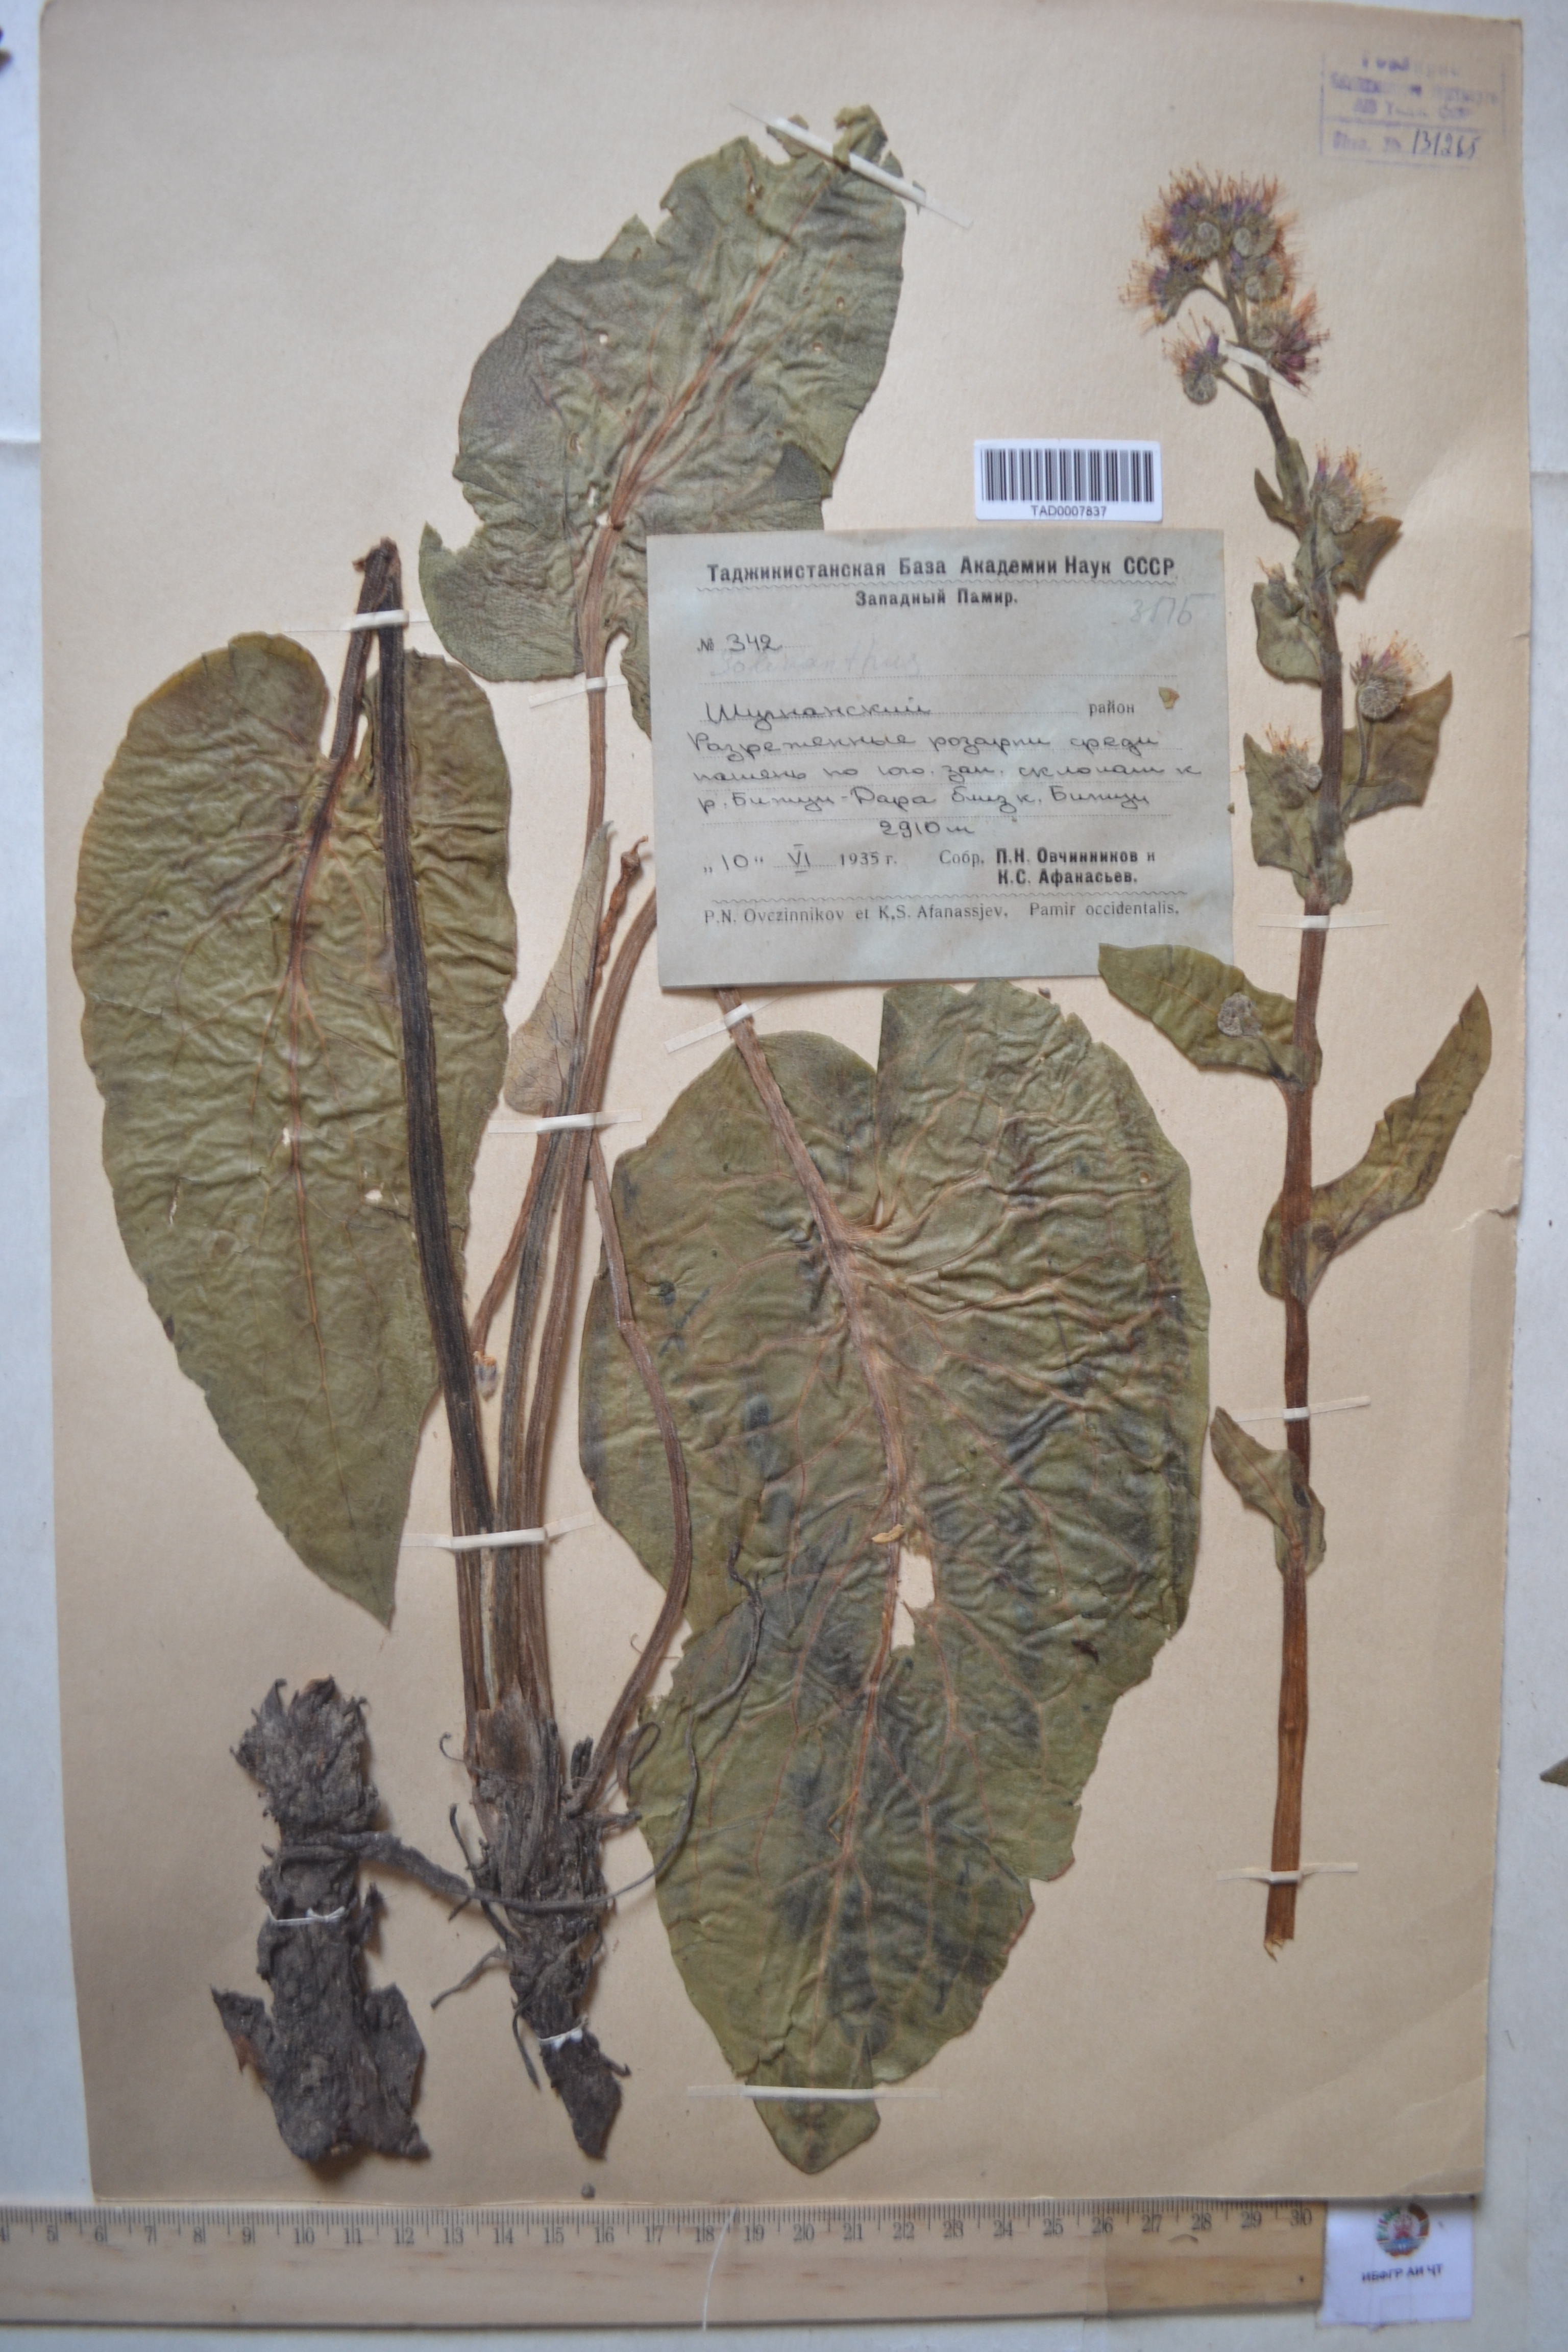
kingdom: Plantae
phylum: Tracheophyta
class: Magnoliopsida
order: Boraginales
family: Boraginaceae
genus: Solenanthus
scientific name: Solenanthus circinnatus
